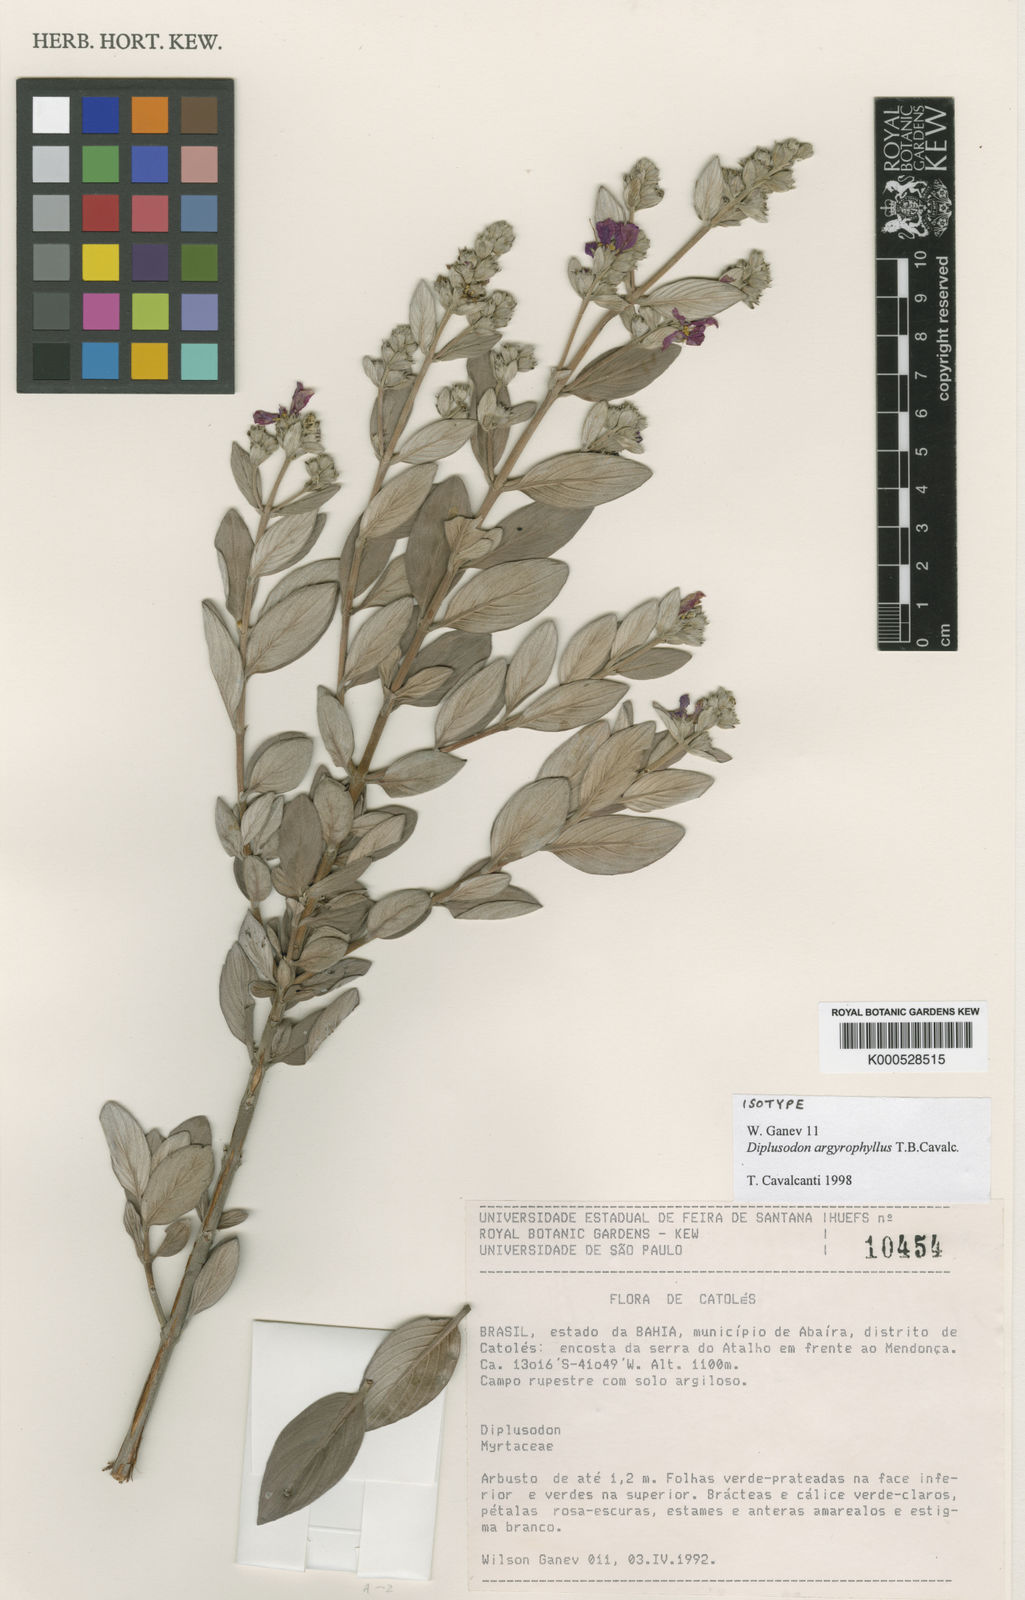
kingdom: Plantae
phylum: Tracheophyta
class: Magnoliopsida
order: Myrtales
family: Lythraceae
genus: Diplusodon
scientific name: Diplusodon argyrophyllus
